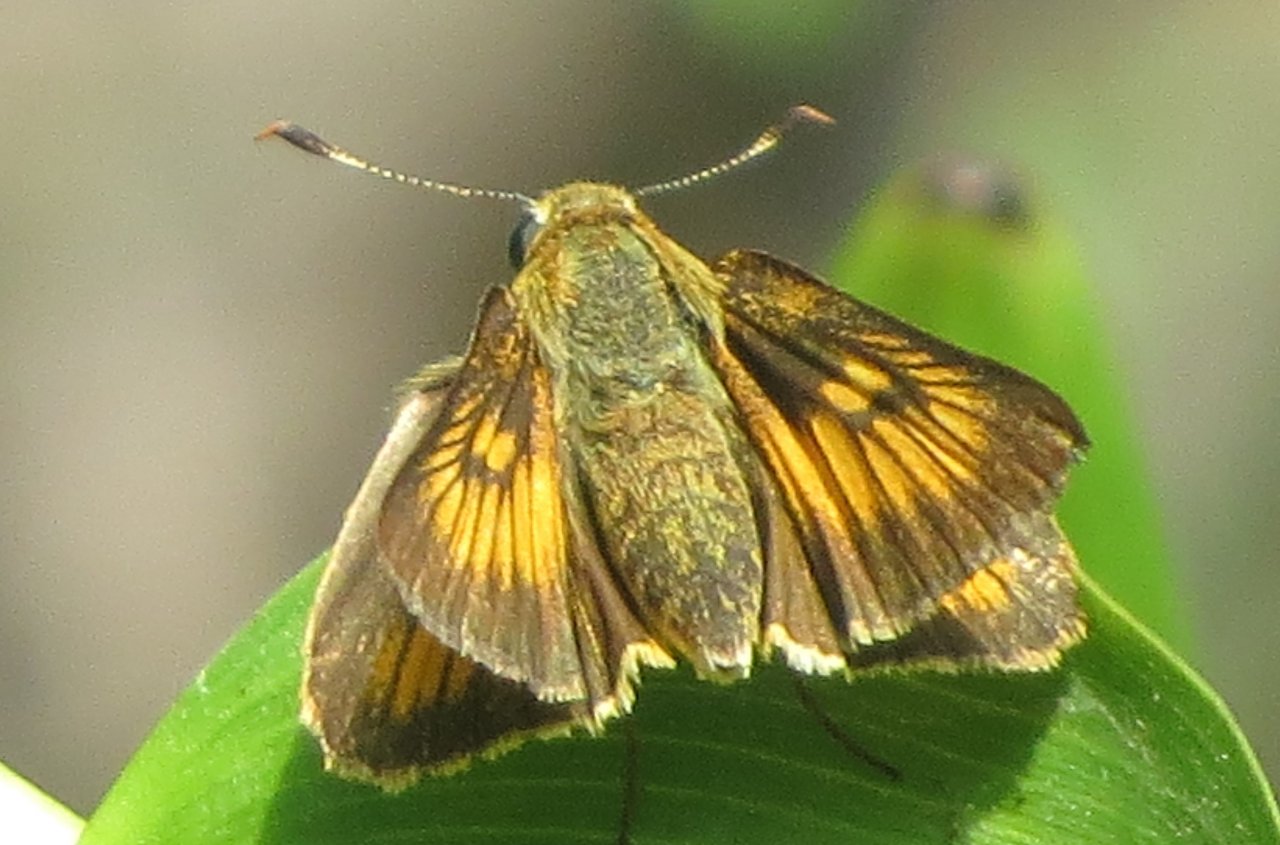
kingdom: Animalia
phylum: Arthropoda
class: Insecta
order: Lepidoptera
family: Hesperiidae
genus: Atrytone
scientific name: Atrytone delaware
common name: Delaware Skipper
